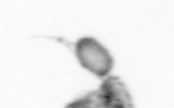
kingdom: Animalia
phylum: Arthropoda
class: Maxillopoda
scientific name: Maxillopoda
